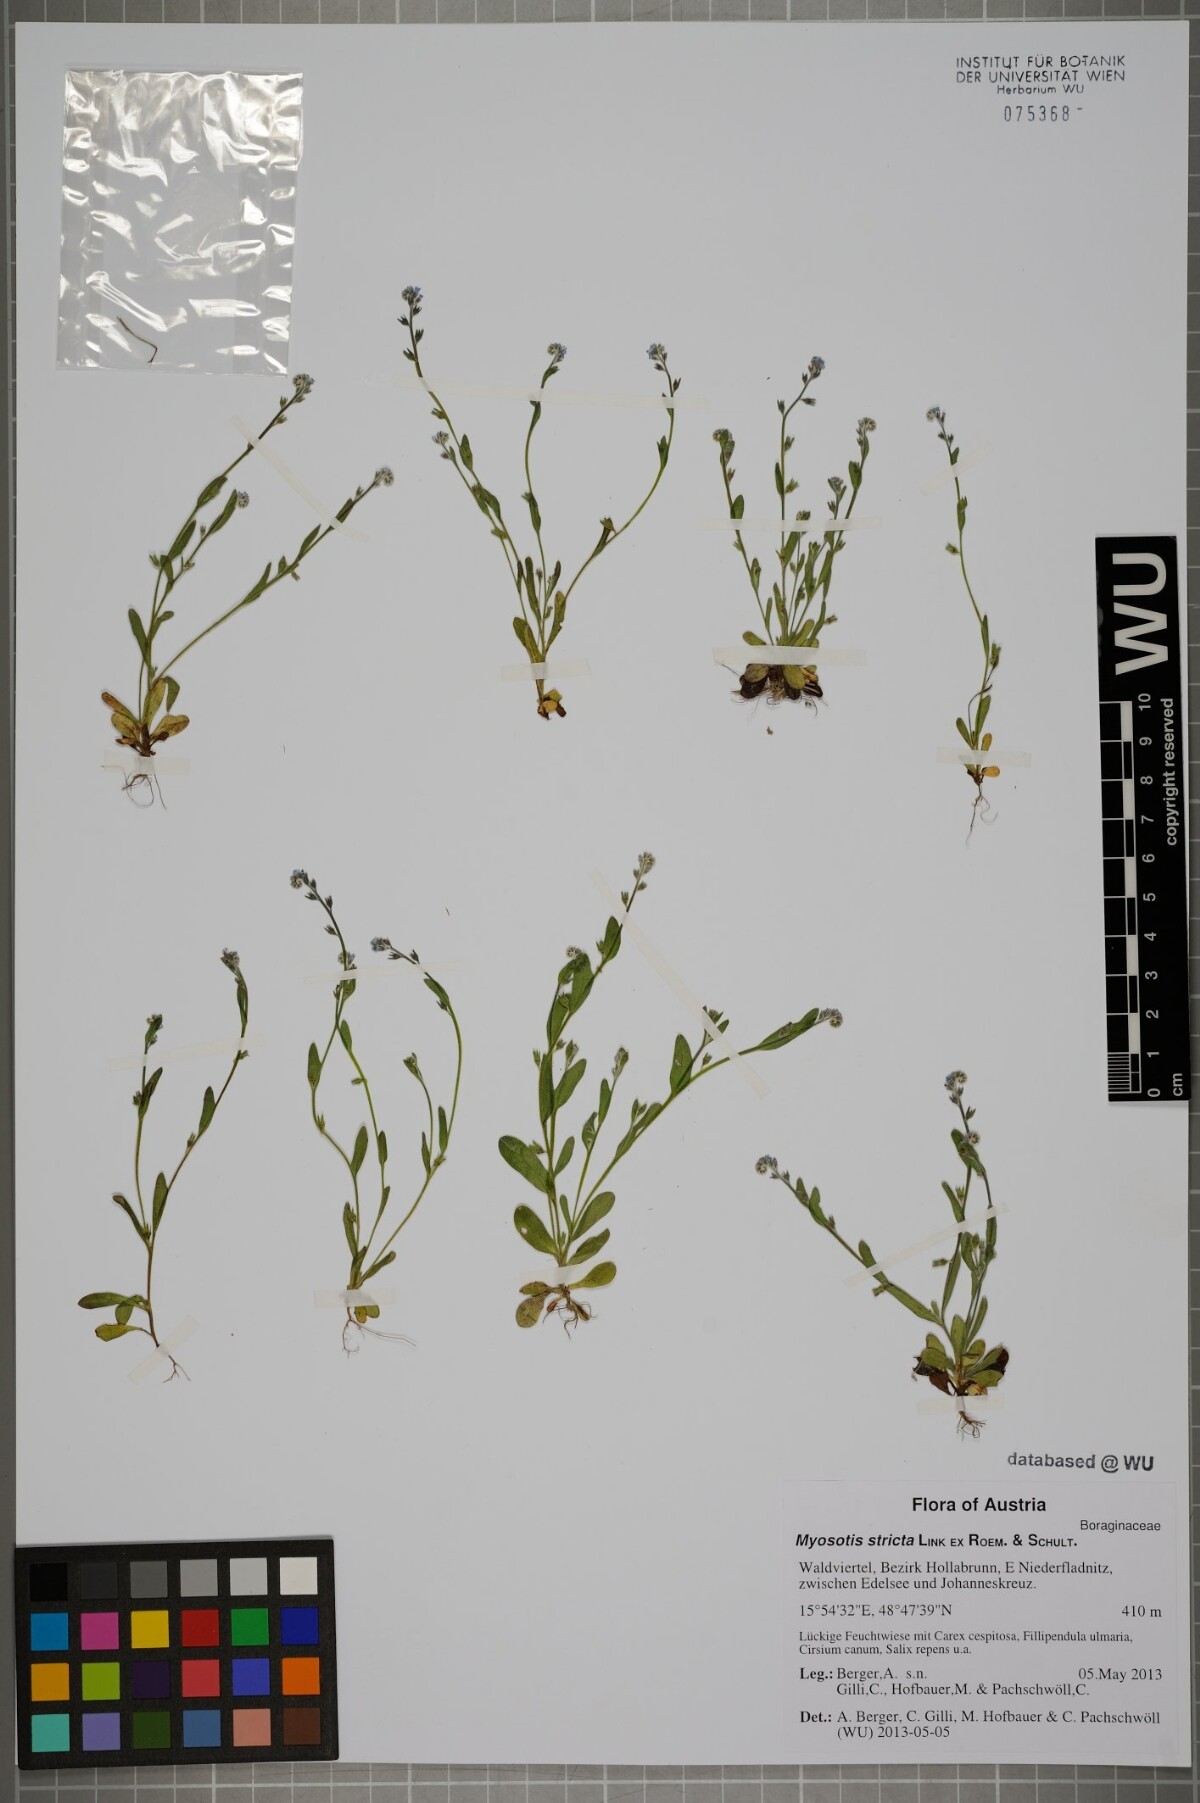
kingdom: Plantae
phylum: Tracheophyta
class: Magnoliopsida
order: Boraginales
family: Boraginaceae
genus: Myosotis
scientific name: Myosotis stricta
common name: Strict forget-me-not
